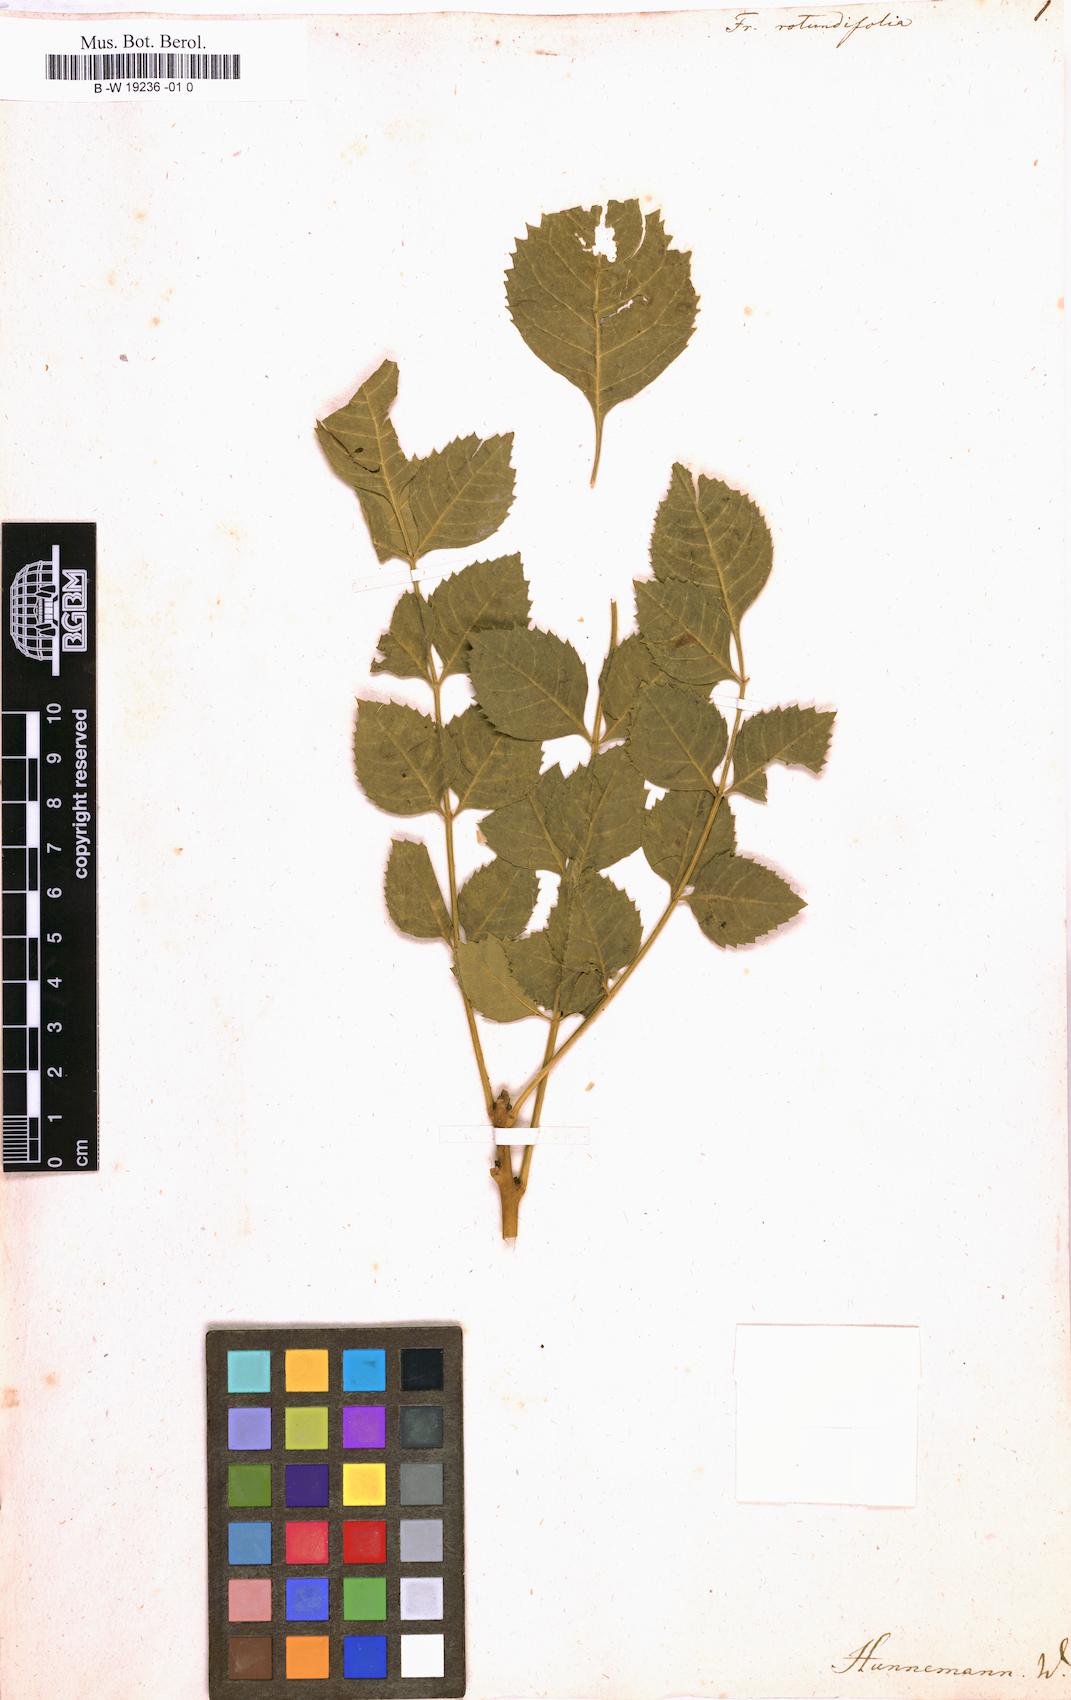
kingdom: Plantae
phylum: Tracheophyta
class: Magnoliopsida
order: Lamiales
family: Oleaceae
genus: Fraxinus
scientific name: Fraxinus angustifolia
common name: Narrow-leafed ash
